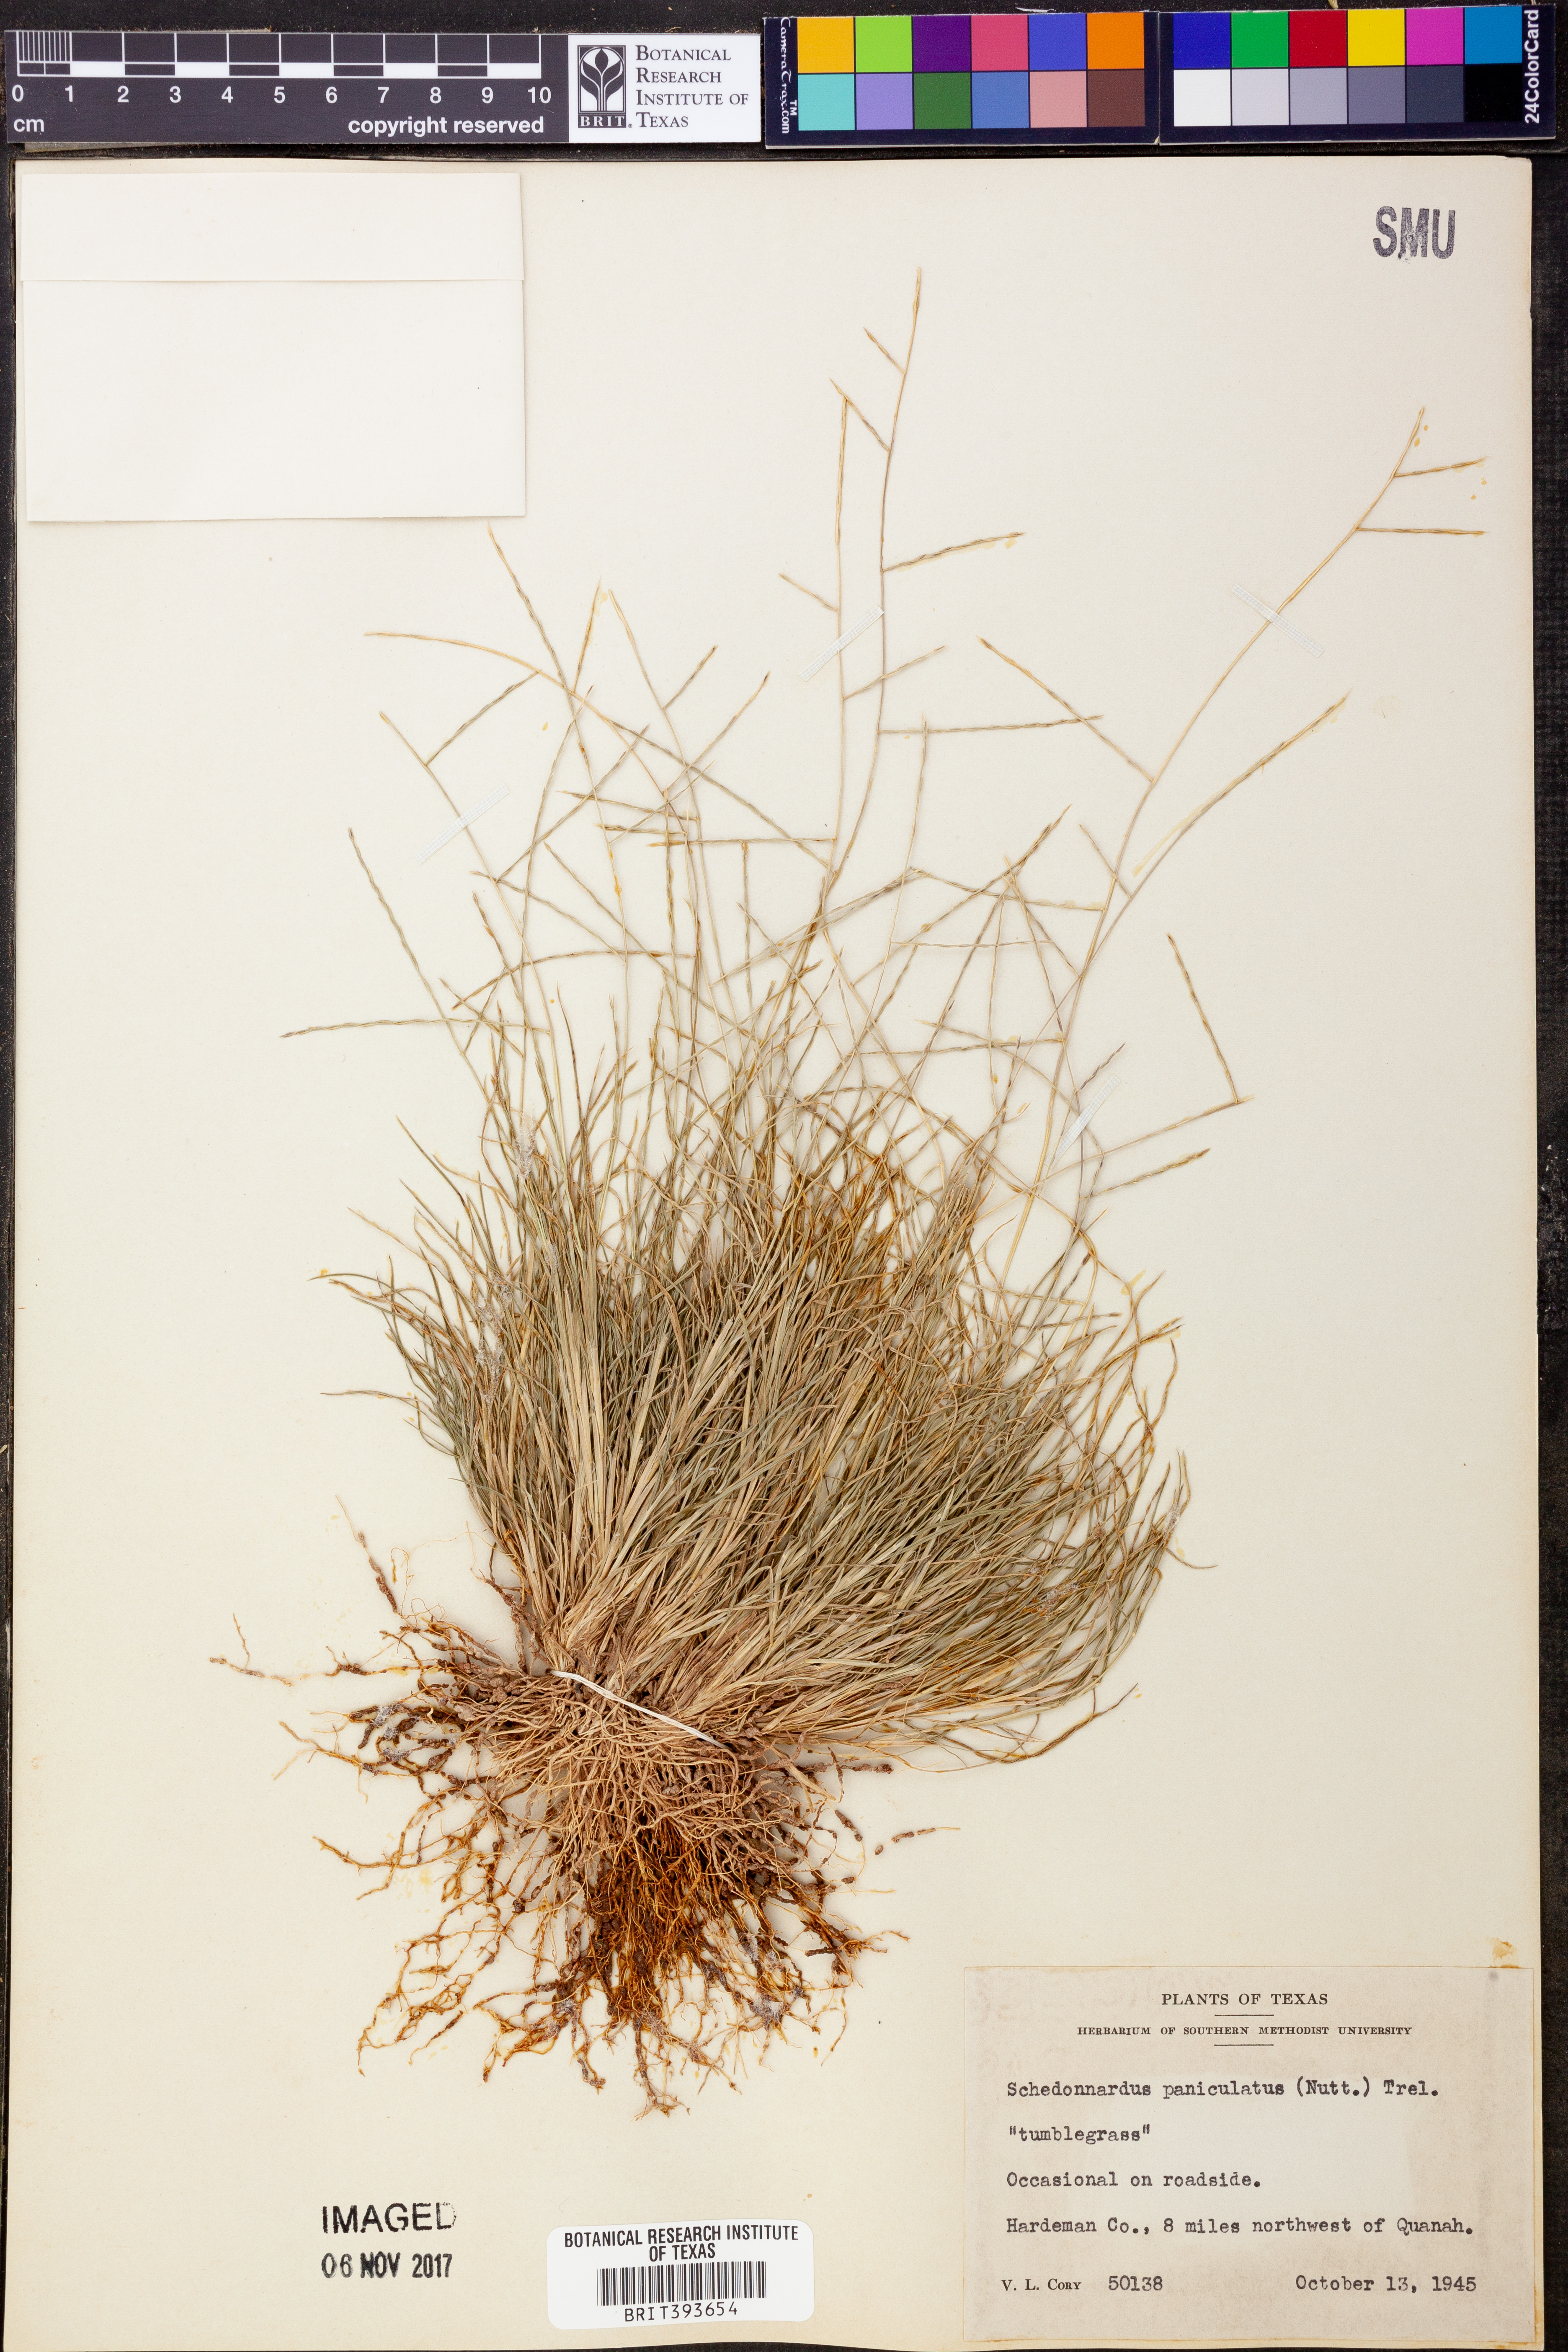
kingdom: Plantae
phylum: Tracheophyta
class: Liliopsida
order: Poales
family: Poaceae
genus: Muhlenbergia
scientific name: Muhlenbergia paniculata
